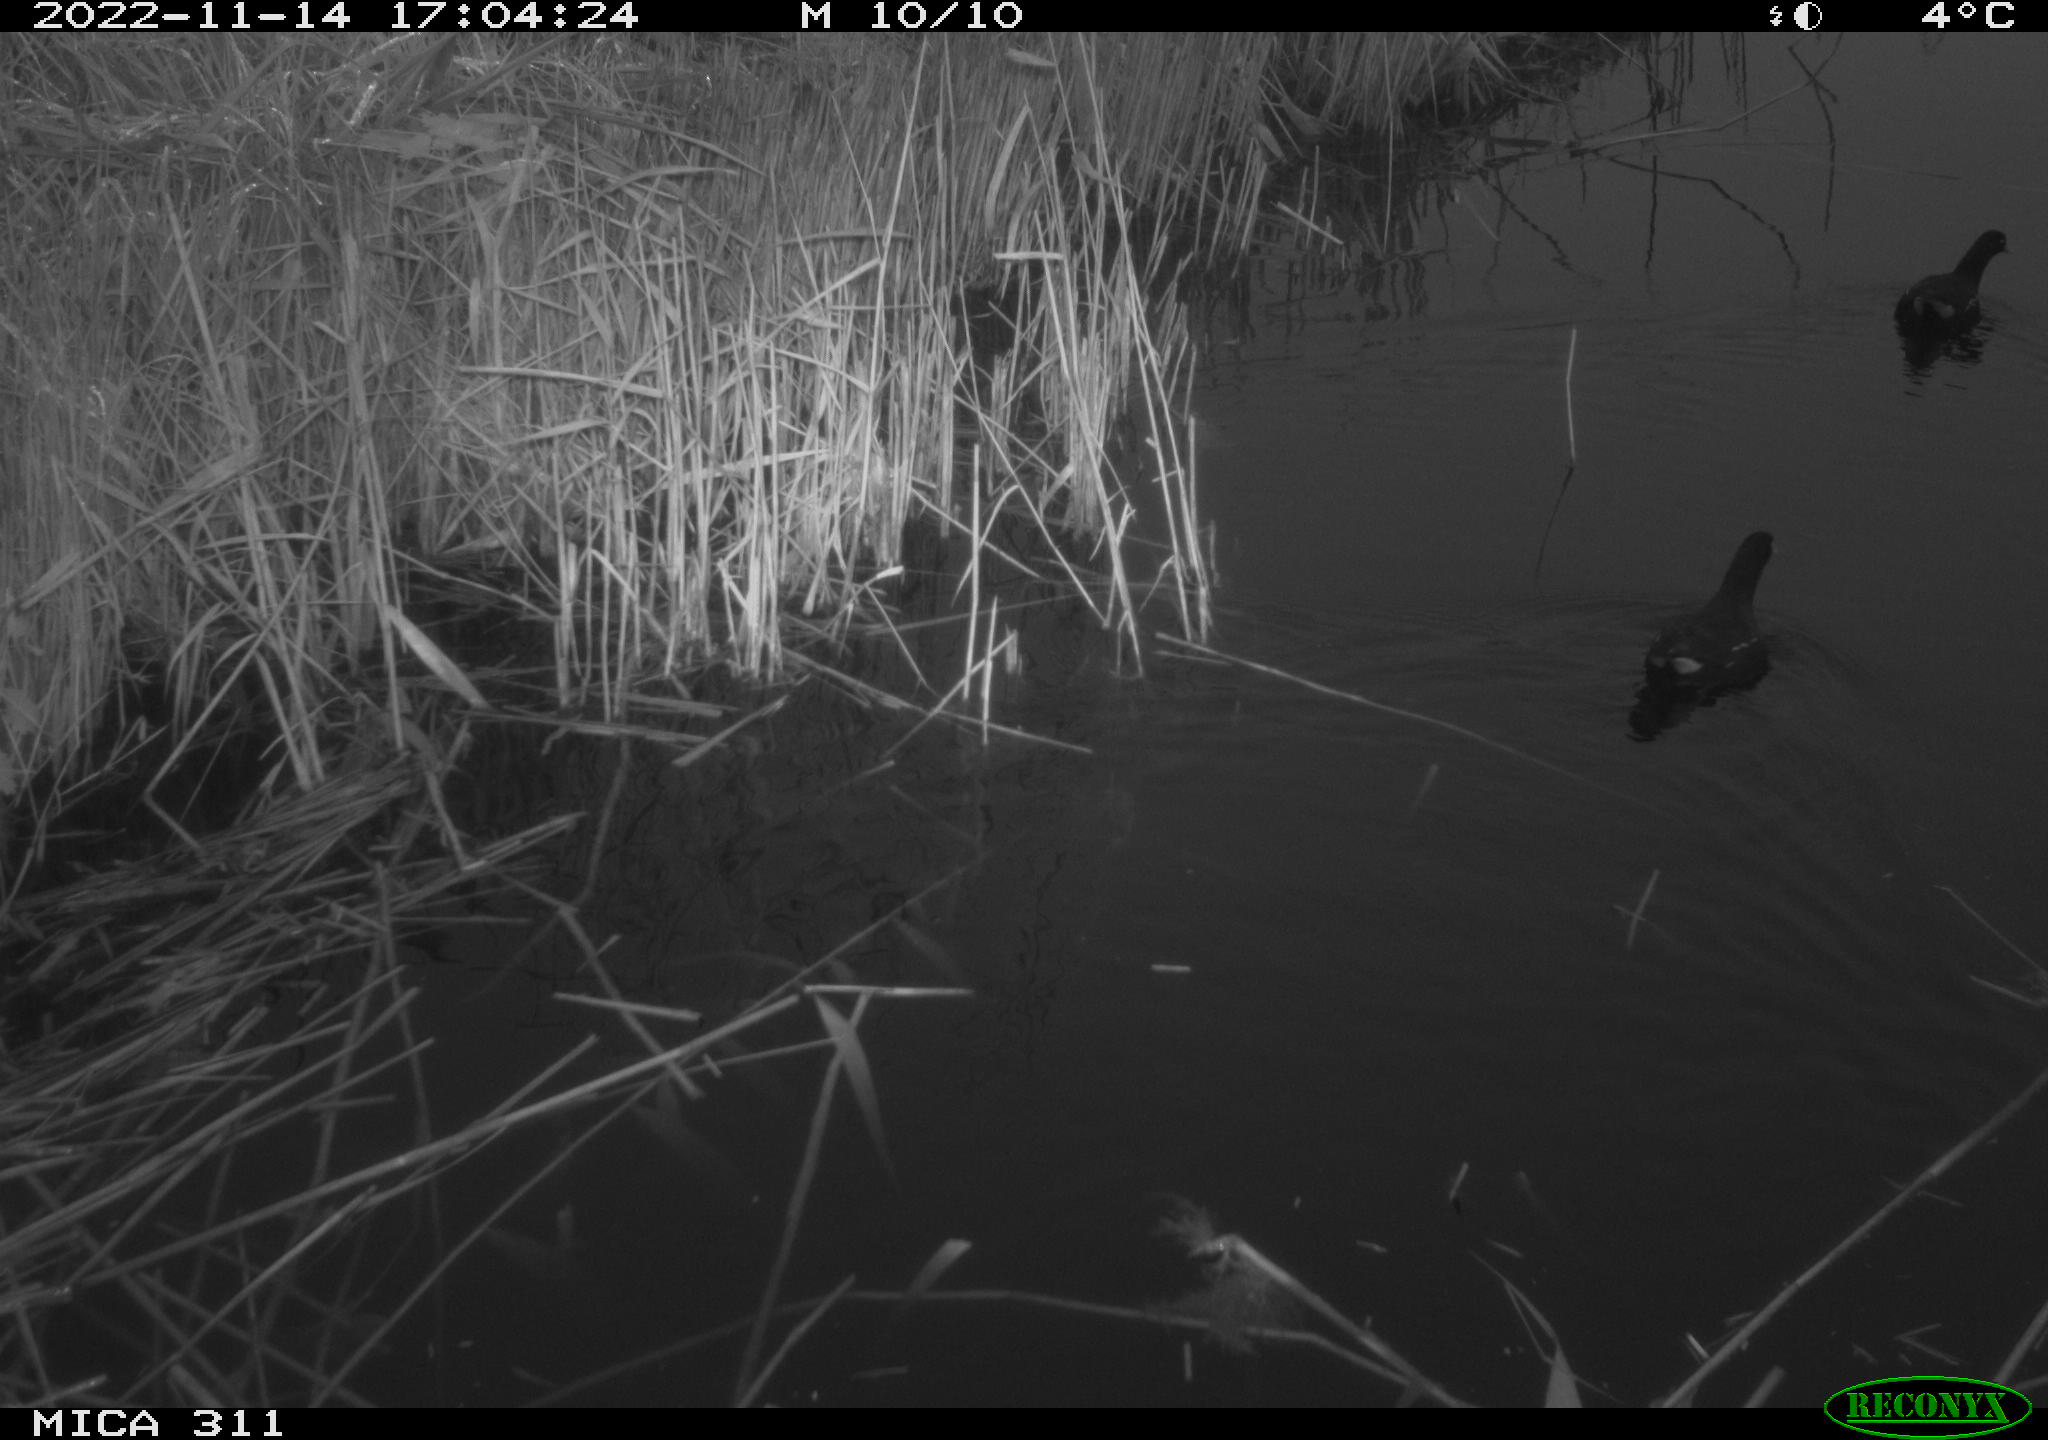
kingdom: Animalia
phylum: Chordata
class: Aves
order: Gruiformes
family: Rallidae
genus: Gallinula
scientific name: Gallinula chloropus
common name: Common moorhen
